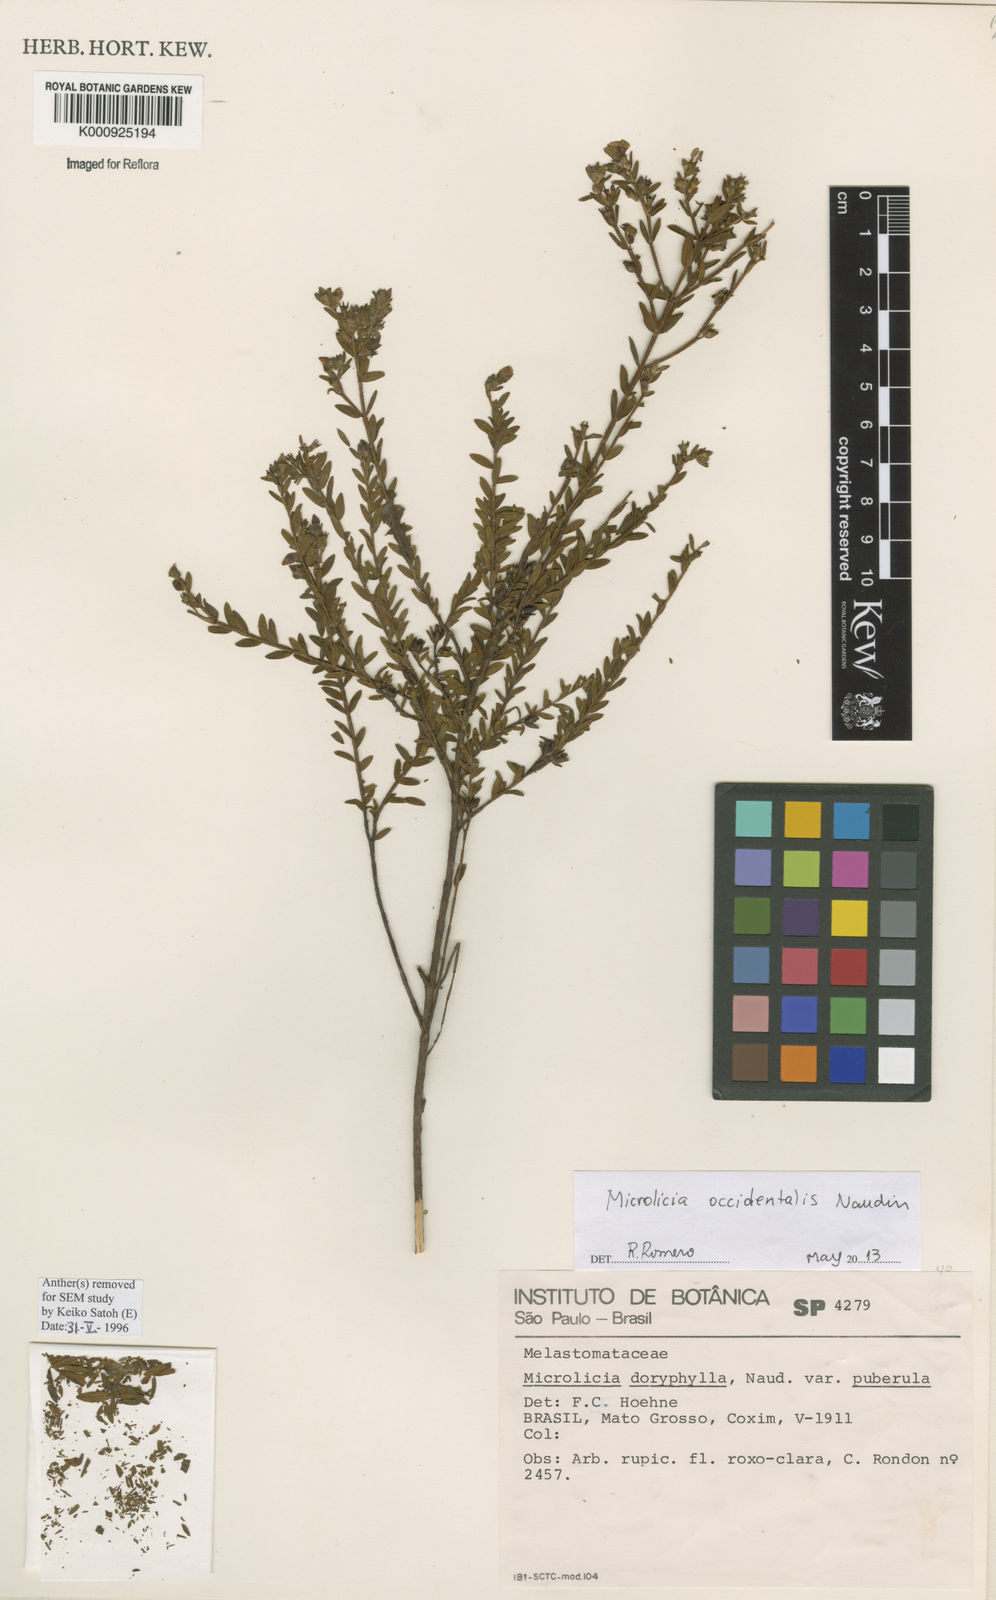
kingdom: Plantae
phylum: Tracheophyta
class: Magnoliopsida
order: Myrtales
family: Melastomataceae
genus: Microlicia
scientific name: Microlicia occidentalis
